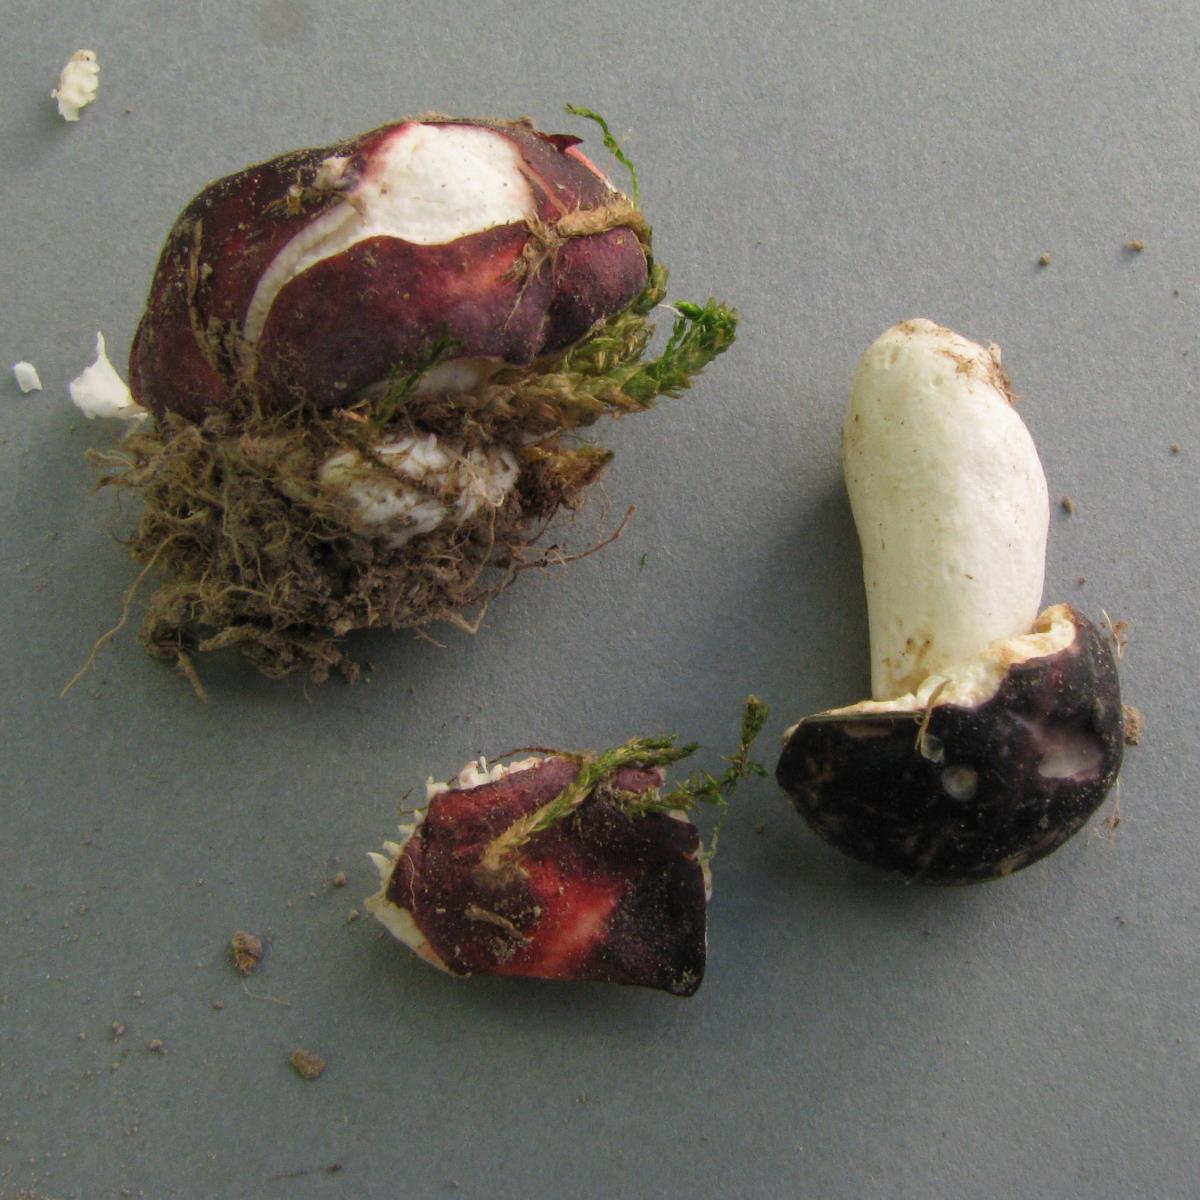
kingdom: Fungi
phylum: Basidiomycota
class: Agaricomycetes
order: Russulales
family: Russulaceae
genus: Russula
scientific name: Russula nana
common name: Alpine brittlegill
